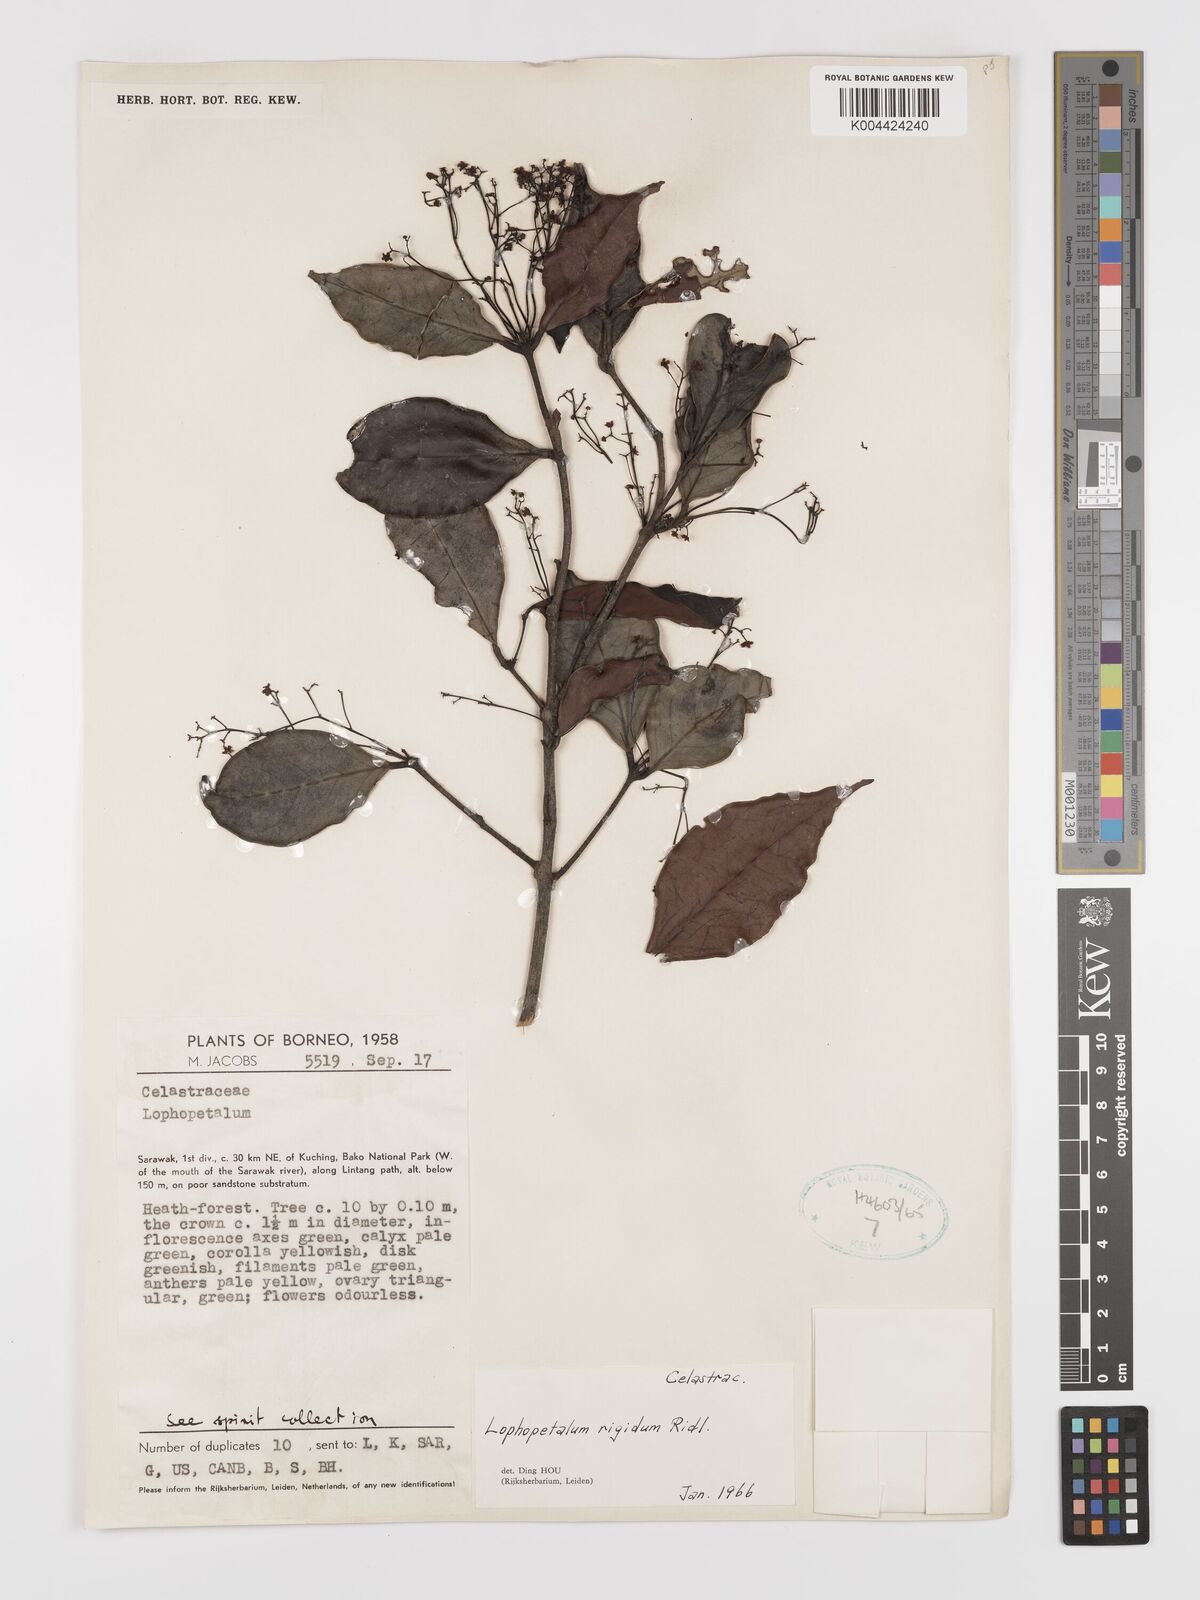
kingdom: Plantae
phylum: Tracheophyta
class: Magnoliopsida
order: Celastrales
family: Celastraceae
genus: Lophopetalum
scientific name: Lophopetalum rigidum
